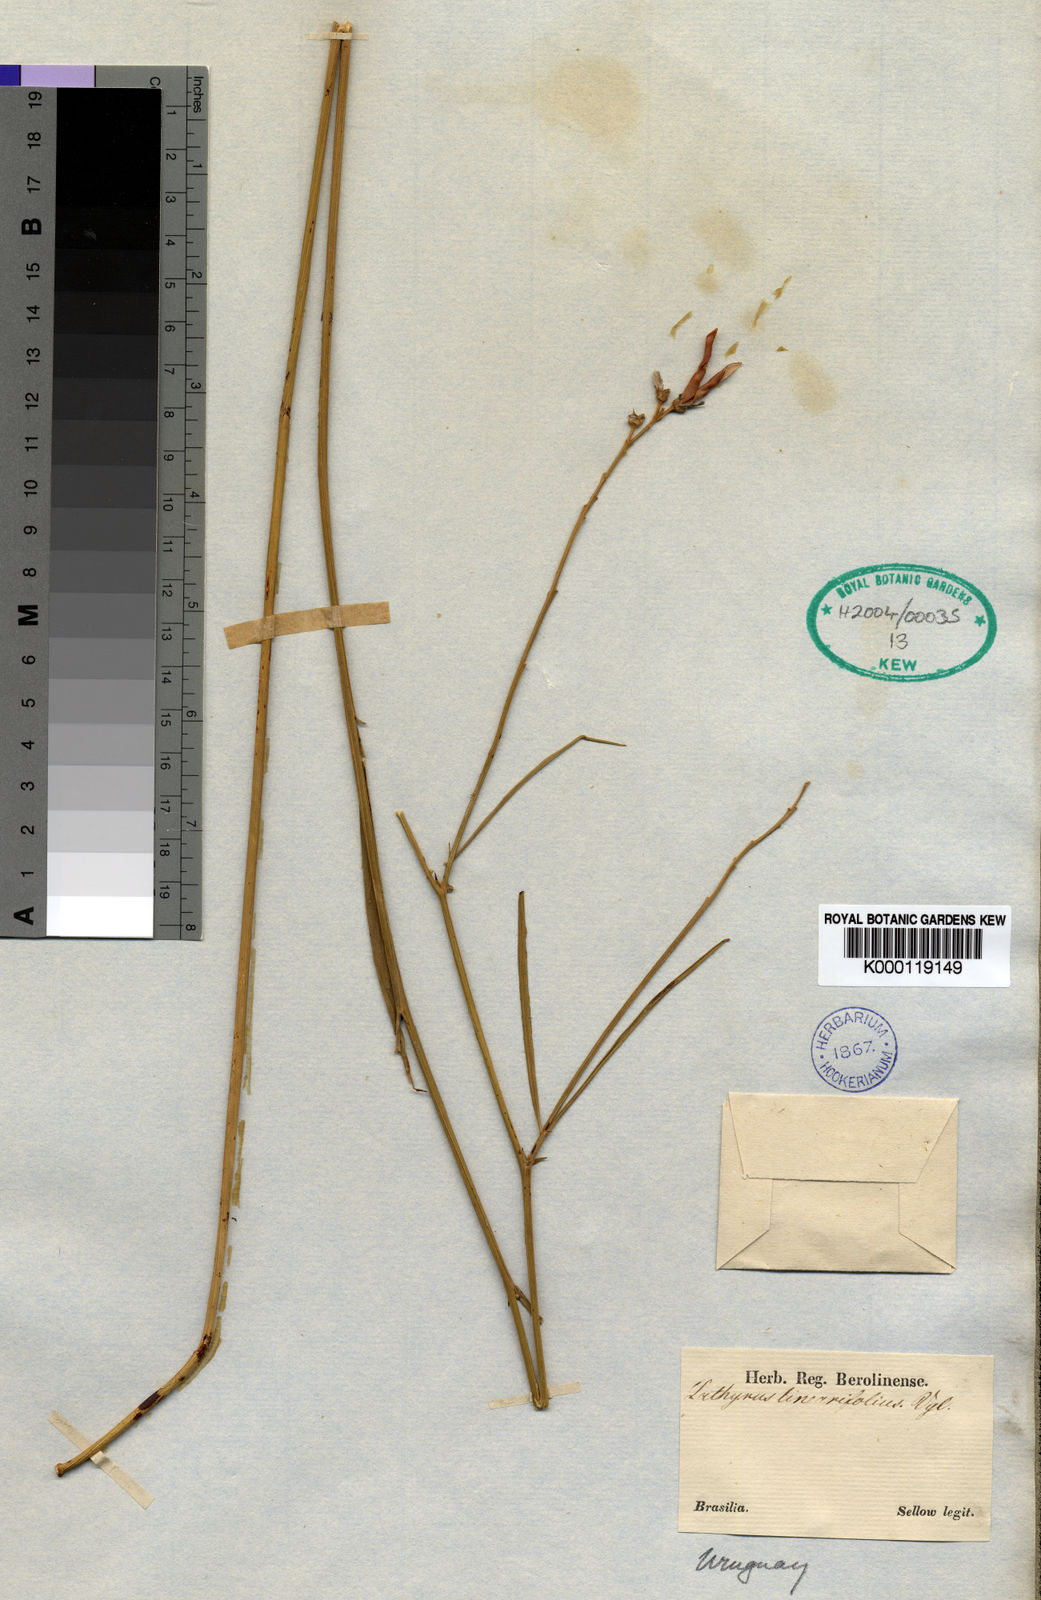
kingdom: Plantae
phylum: Tracheophyta
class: Magnoliopsida
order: Fabales
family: Fabaceae
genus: Lathyrus
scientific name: Lathyrus linearifolius
